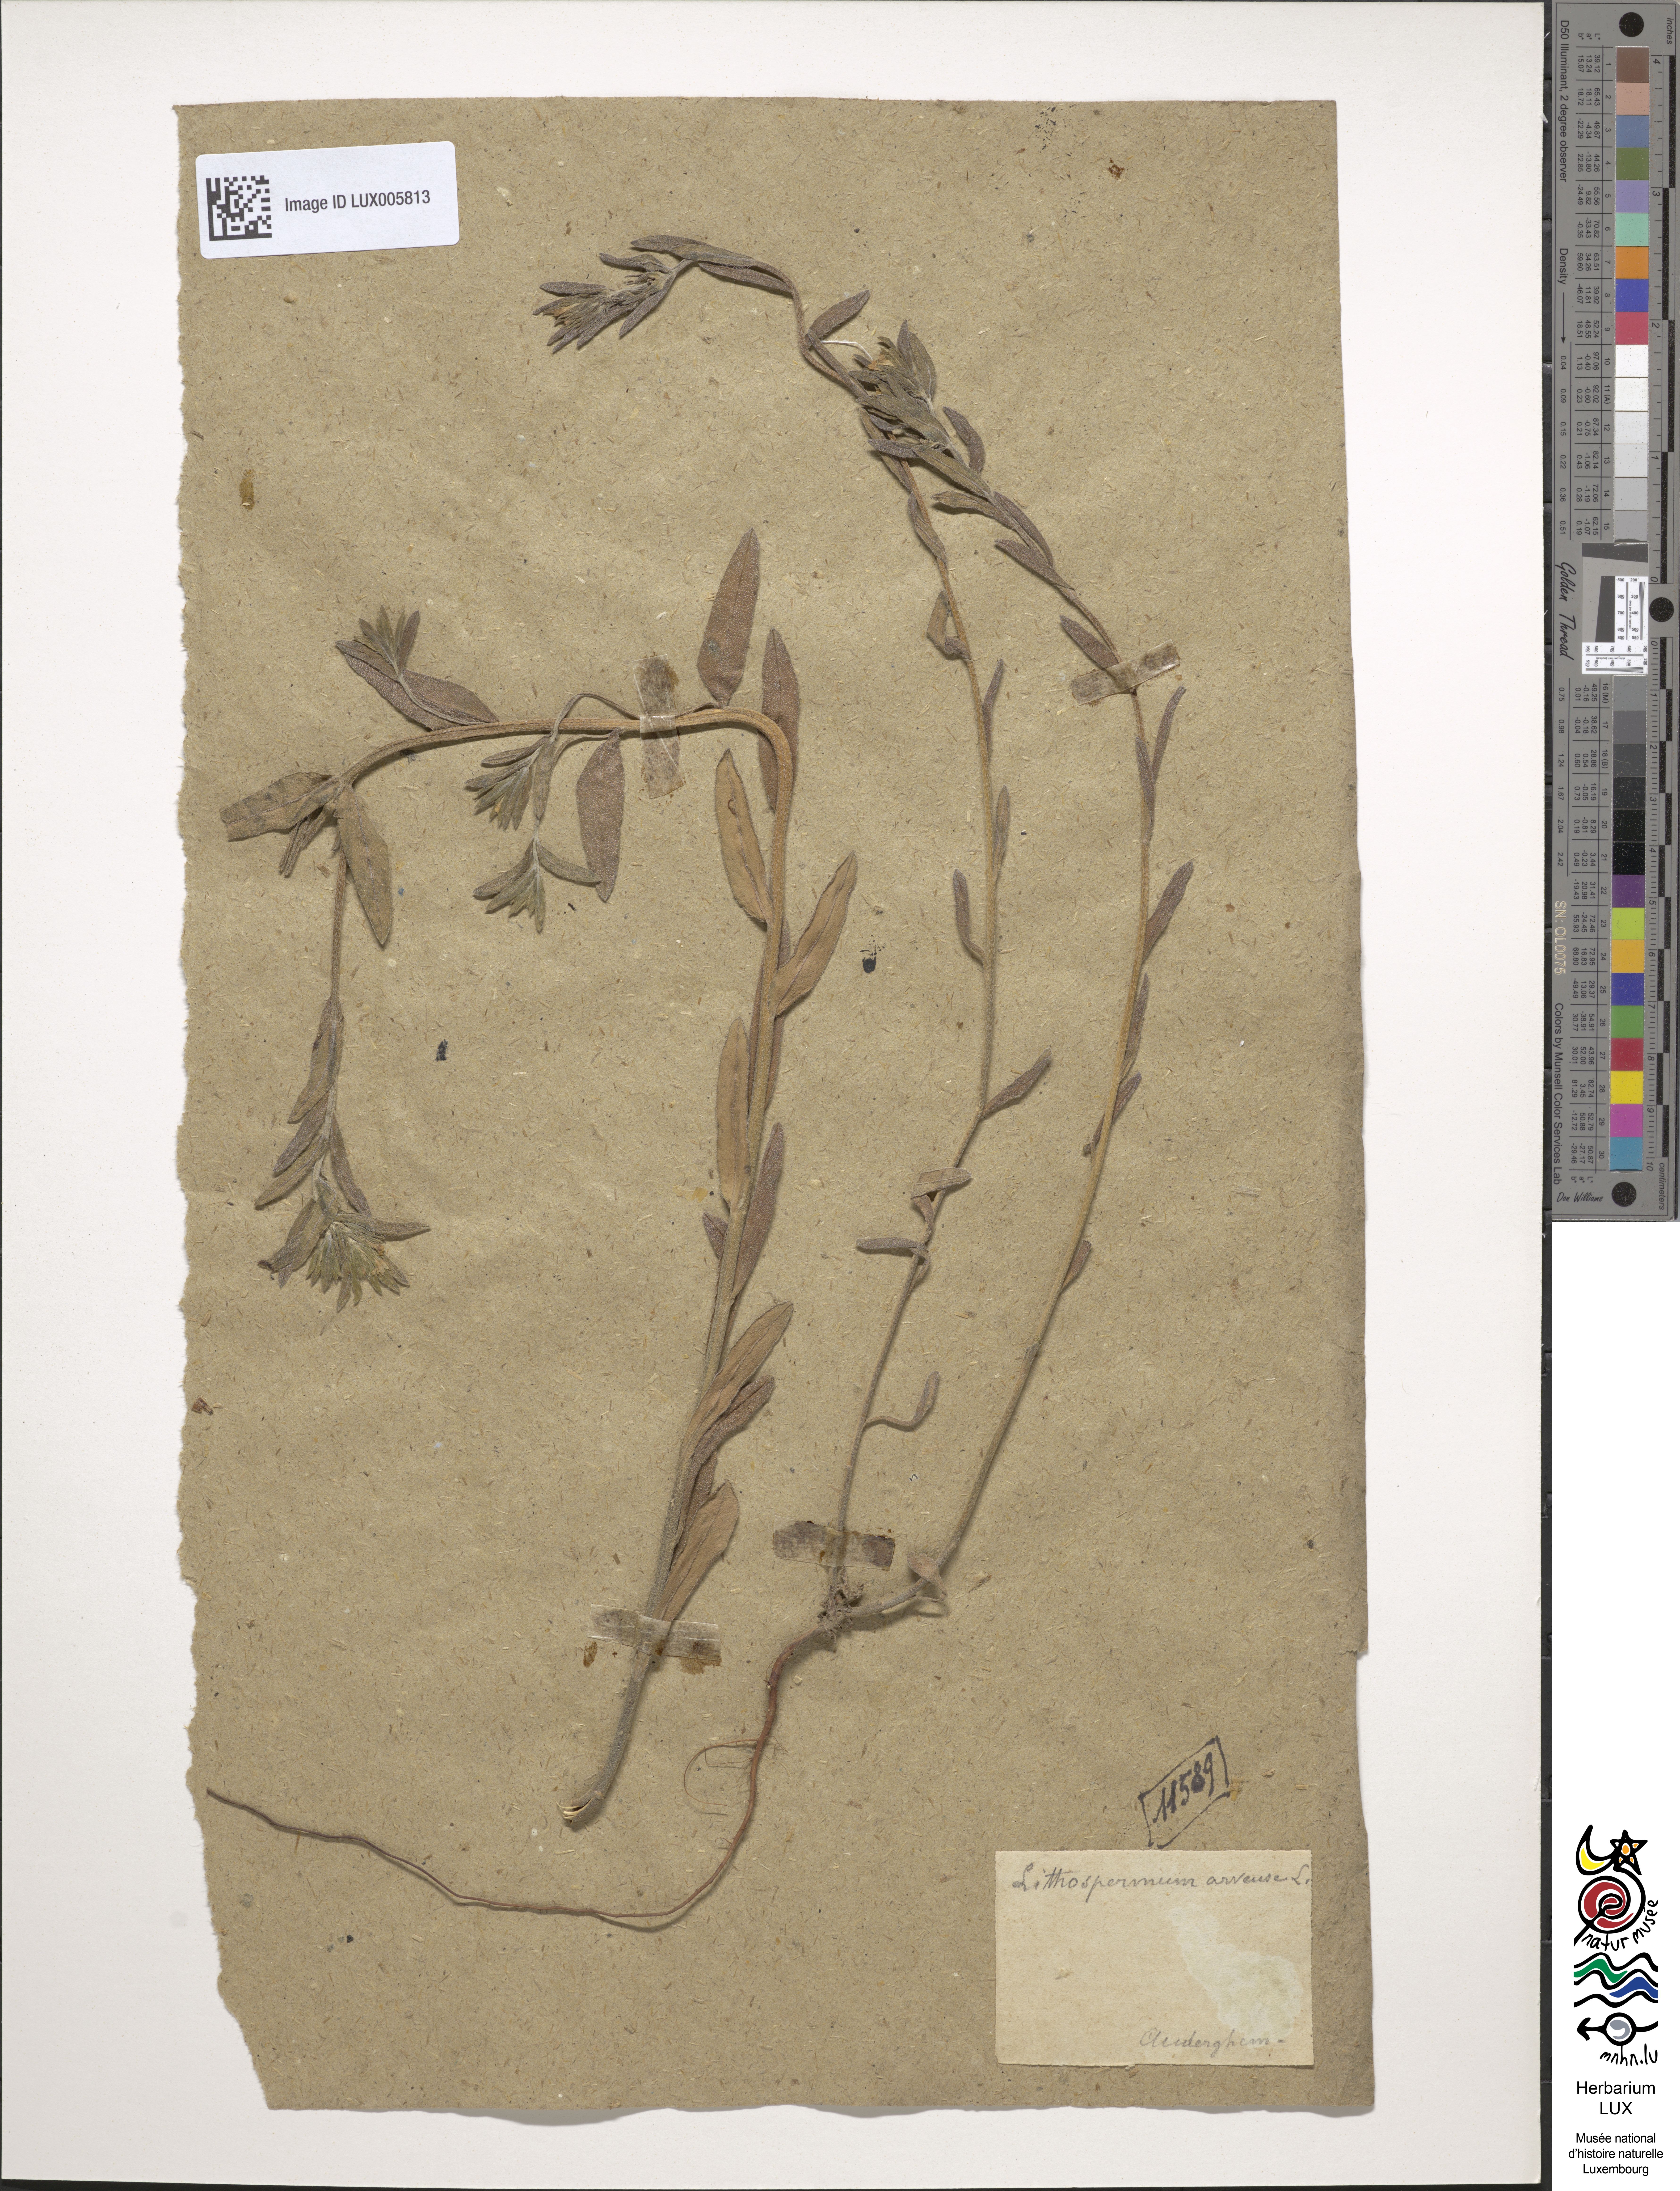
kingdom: Plantae
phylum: Tracheophyta
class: Magnoliopsida
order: Boraginales
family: Boraginaceae
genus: Buglossoides
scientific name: Buglossoides arvensis
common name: Corn gromwell
